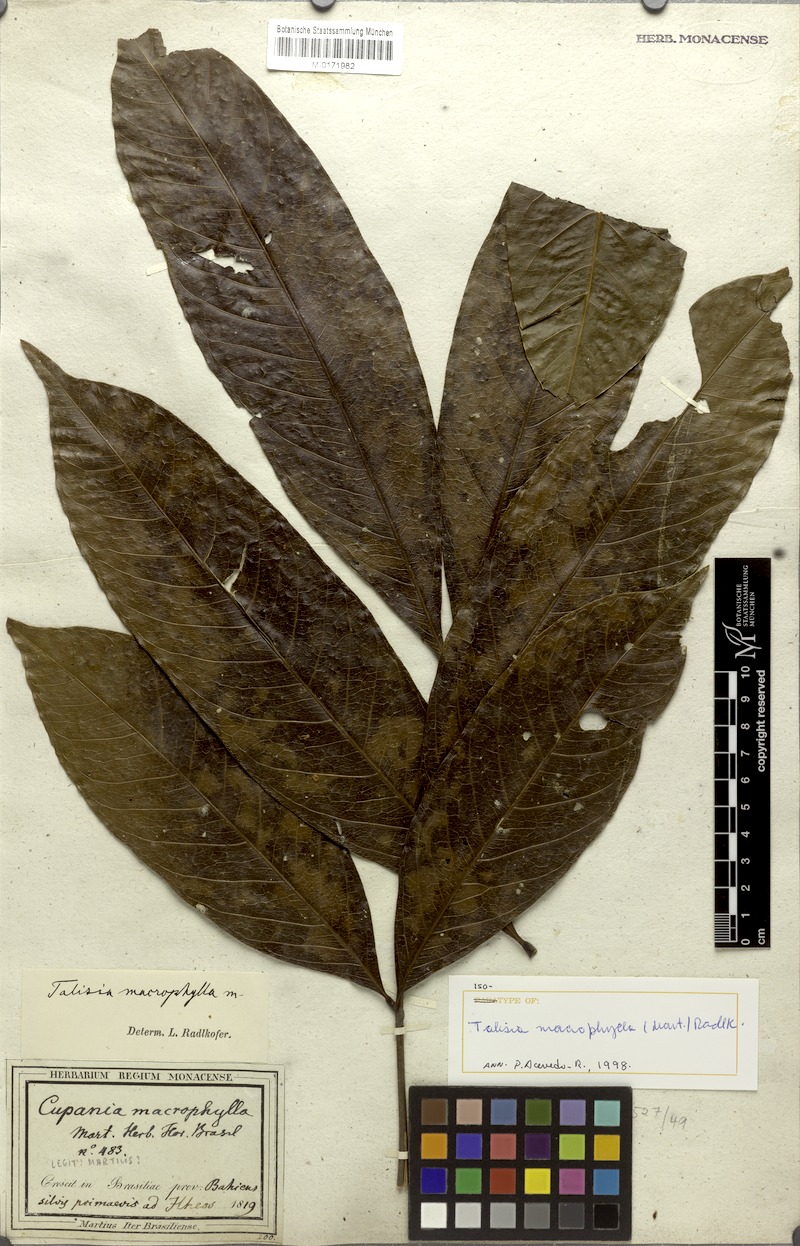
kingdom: Plantae
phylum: Tracheophyta
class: Magnoliopsida
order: Sapindales
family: Sapindaceae
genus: Talisia
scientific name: Talisia macrophylla
